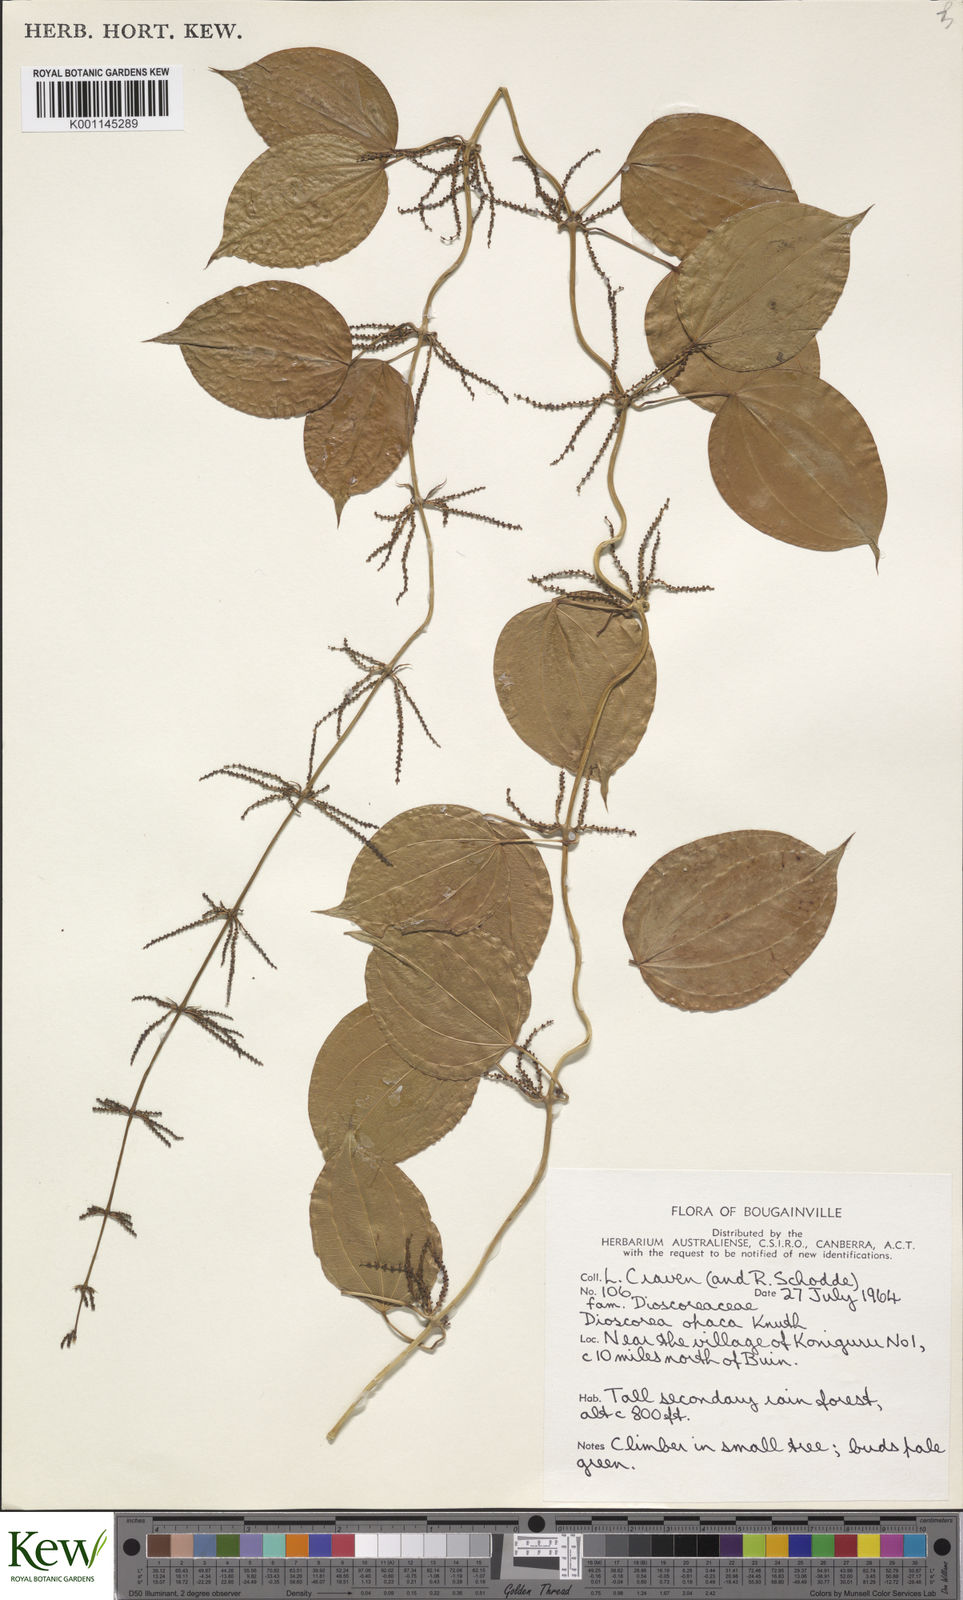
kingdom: Plantae
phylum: Tracheophyta
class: Liliopsida
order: Dioscoreales
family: Dioscoreaceae
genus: Dioscorea
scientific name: Dioscorea opaca
